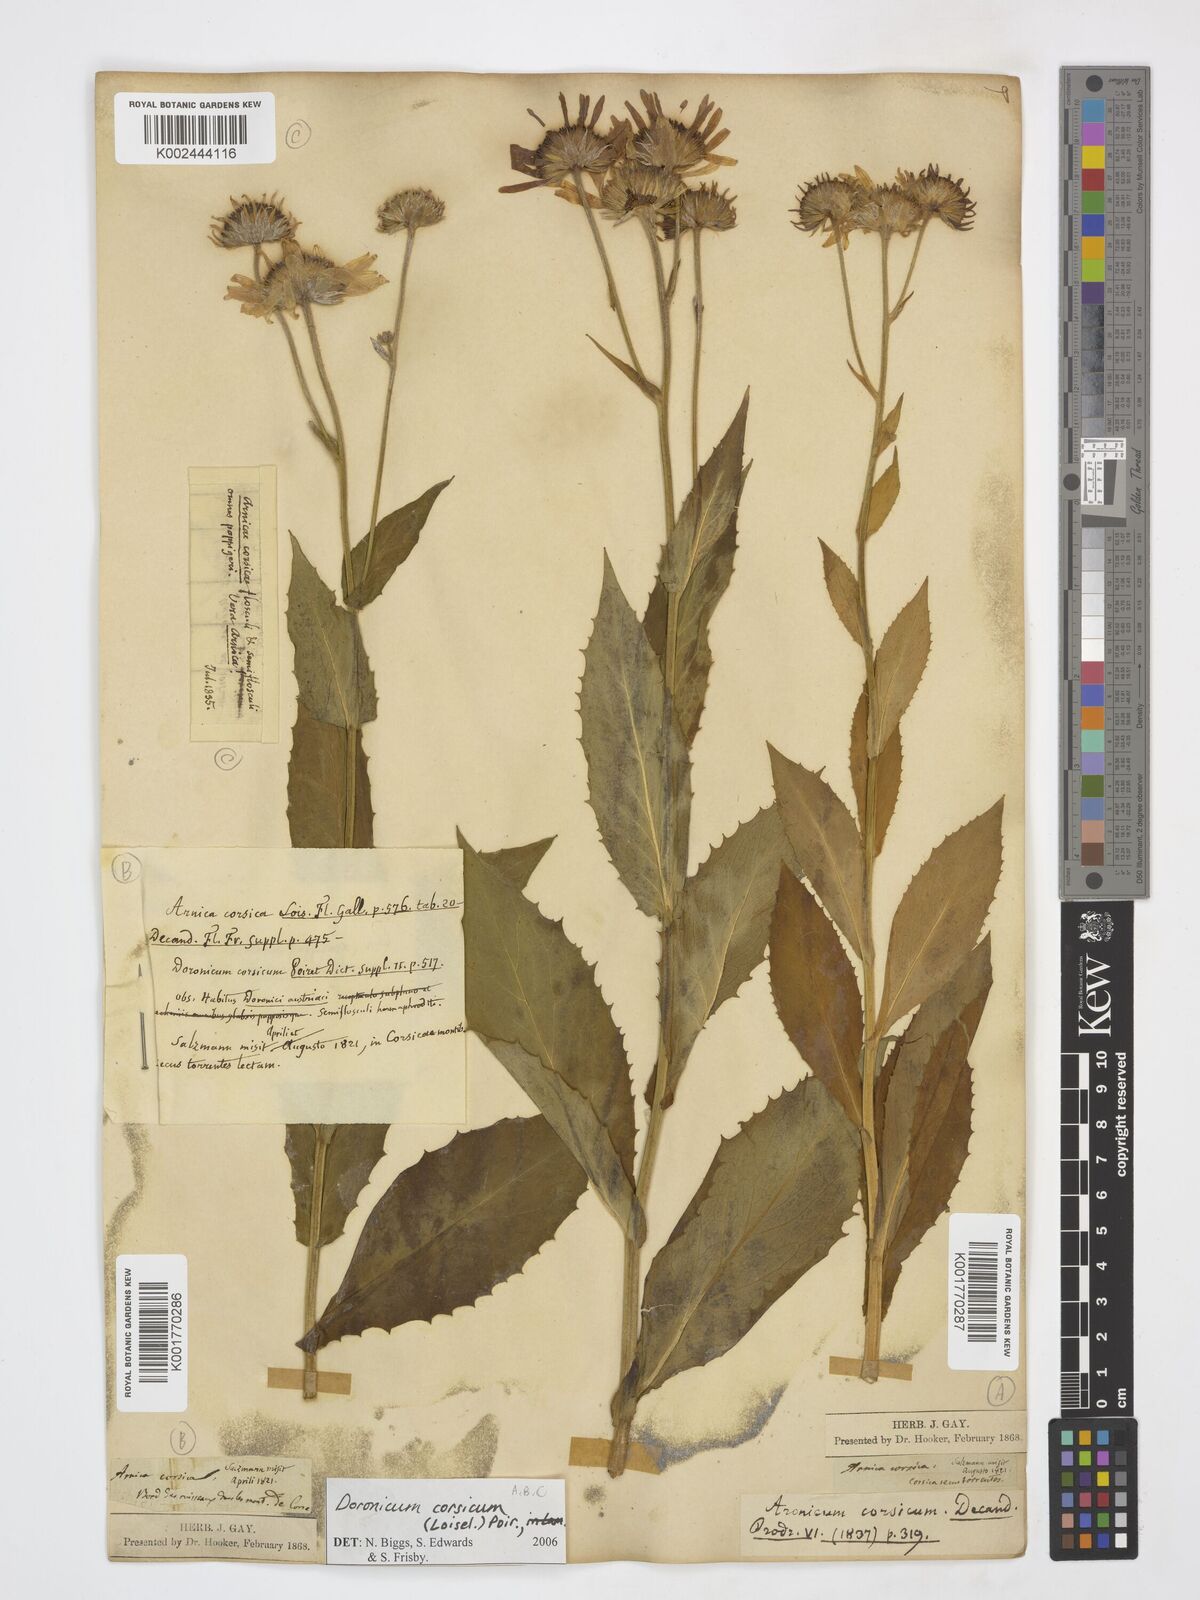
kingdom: Plantae
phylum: Tracheophyta
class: Magnoliopsida
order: Asterales
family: Asteraceae
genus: Doronicum
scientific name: Doronicum corsicum
